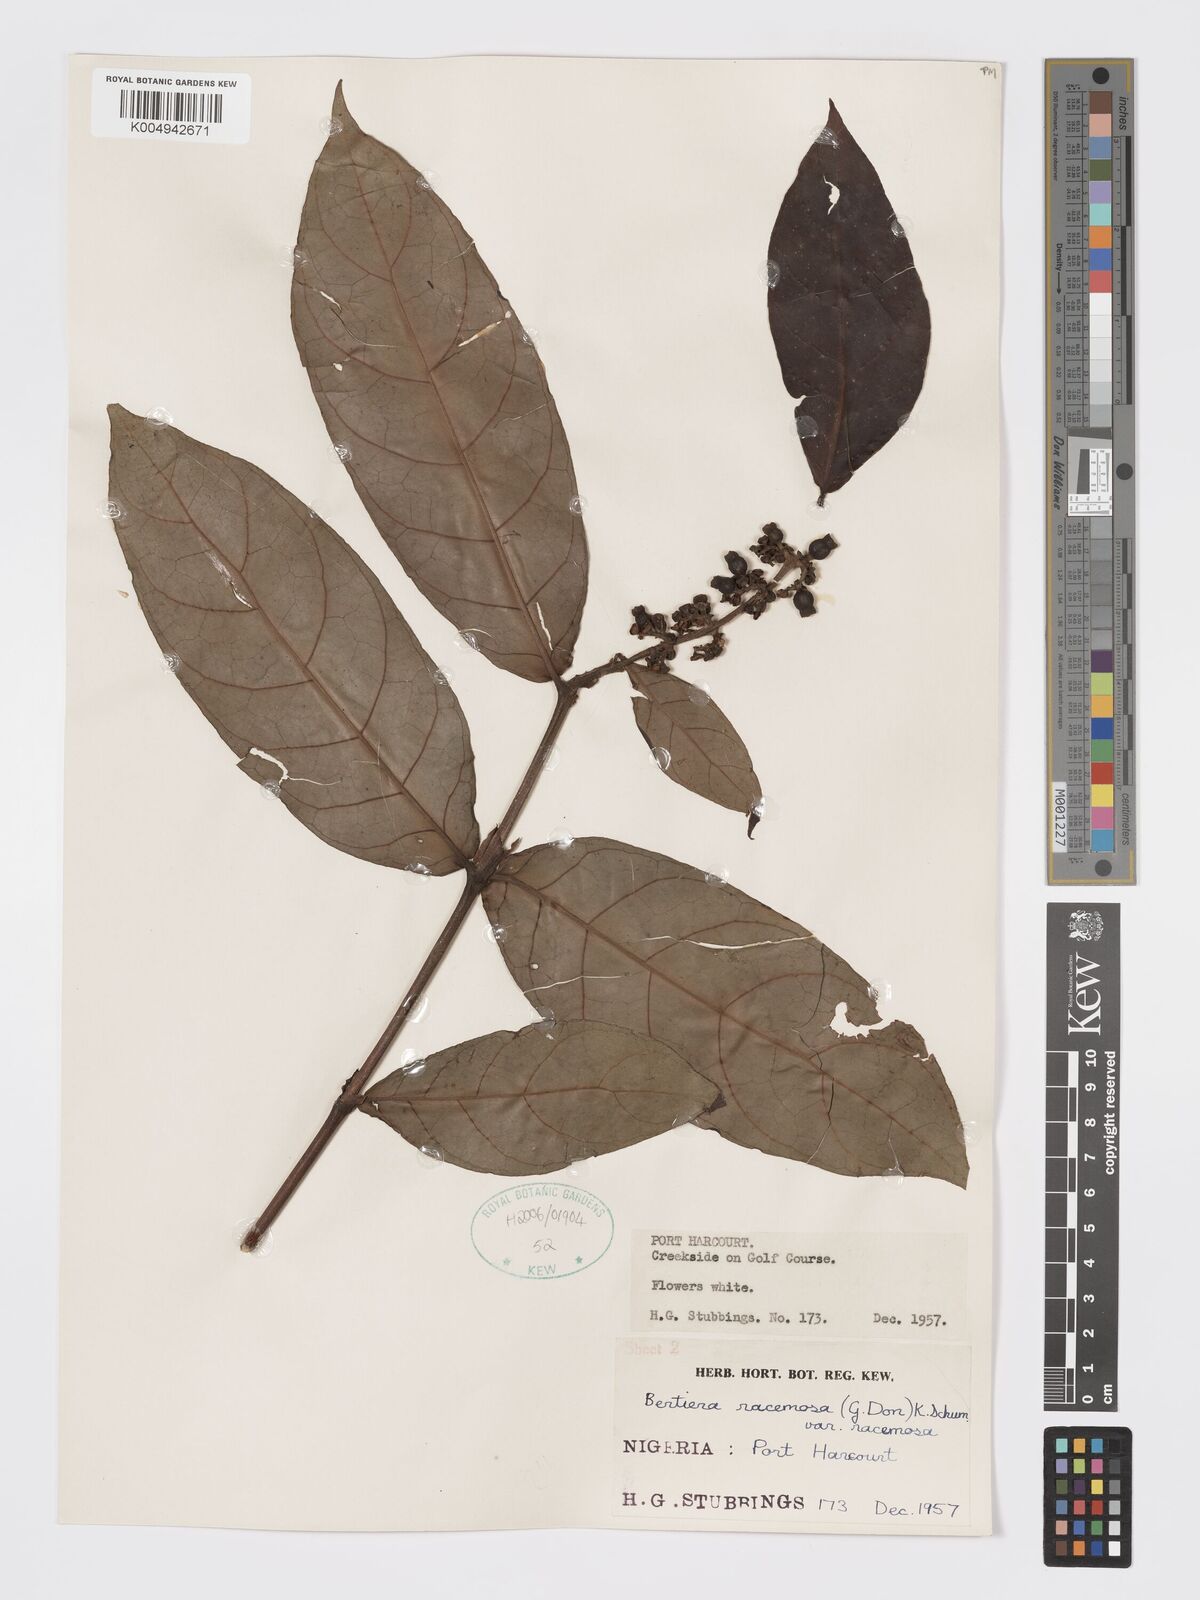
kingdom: Plantae
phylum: Tracheophyta
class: Magnoliopsida
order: Gentianales
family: Rubiaceae
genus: Bertiera
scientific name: Bertiera racemosa
